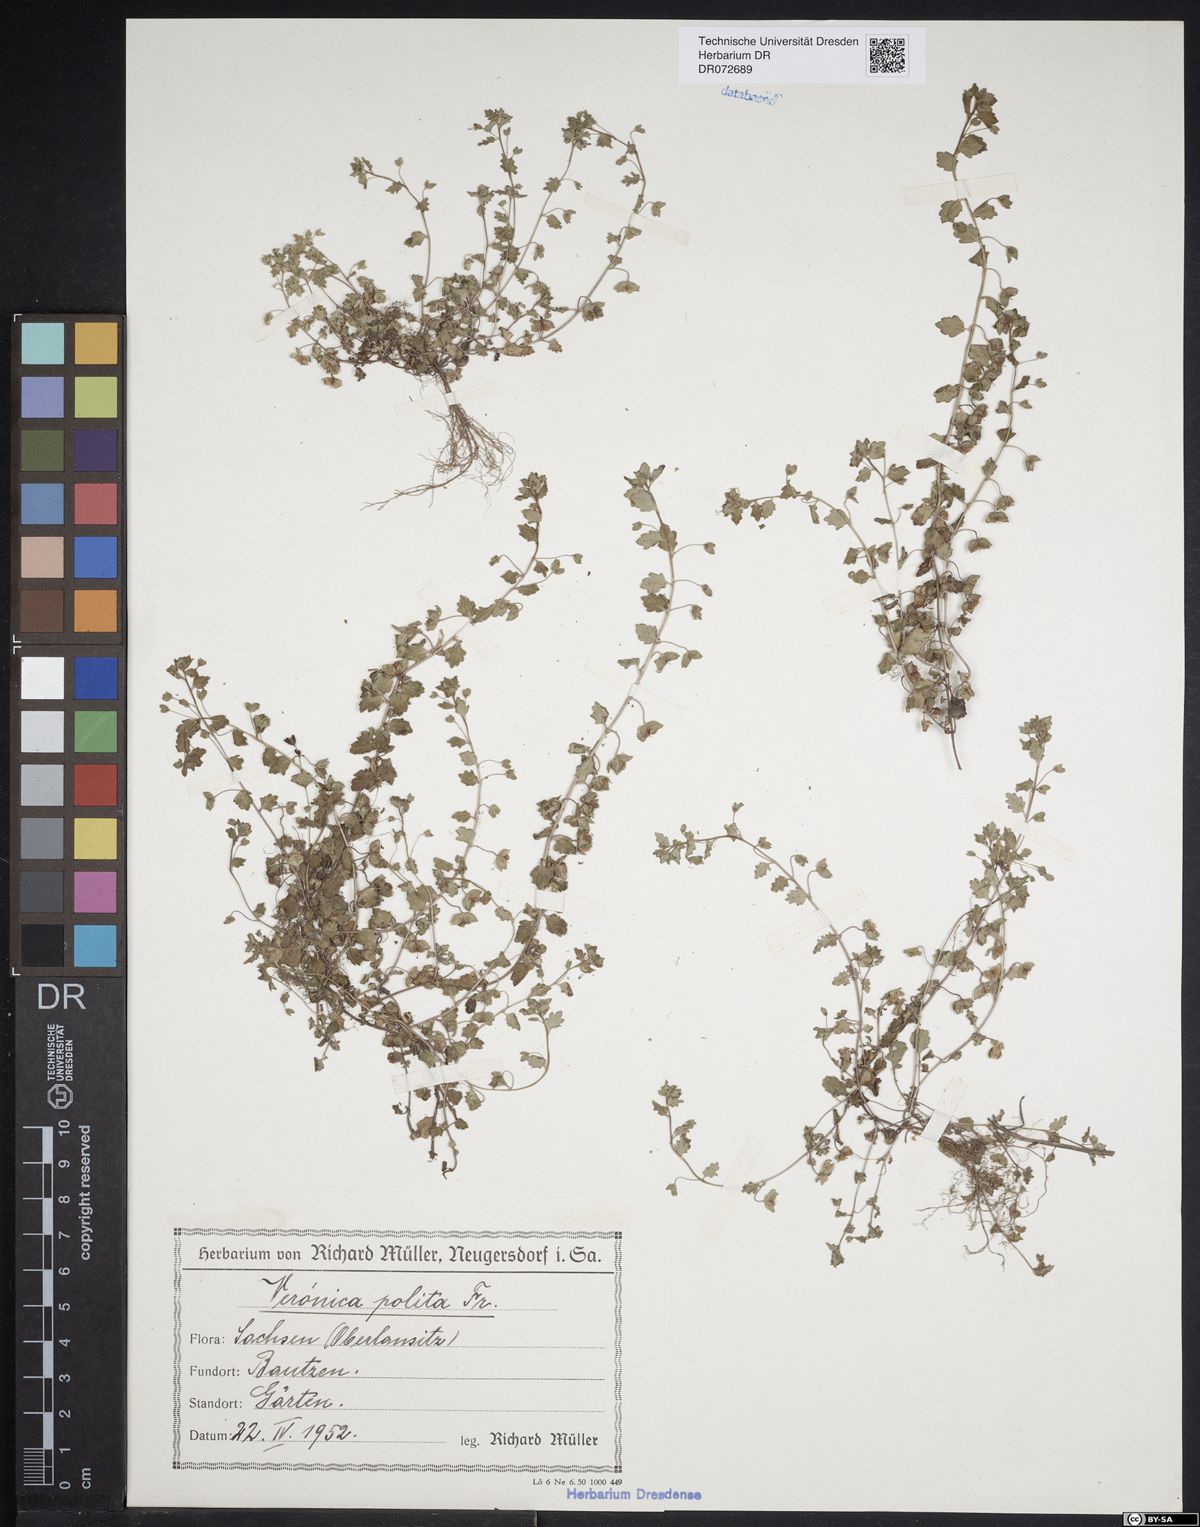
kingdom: Plantae
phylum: Tracheophyta
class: Magnoliopsida
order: Lamiales
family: Plantaginaceae
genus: Veronica
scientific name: Veronica polita
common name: Grey field-speedwell
